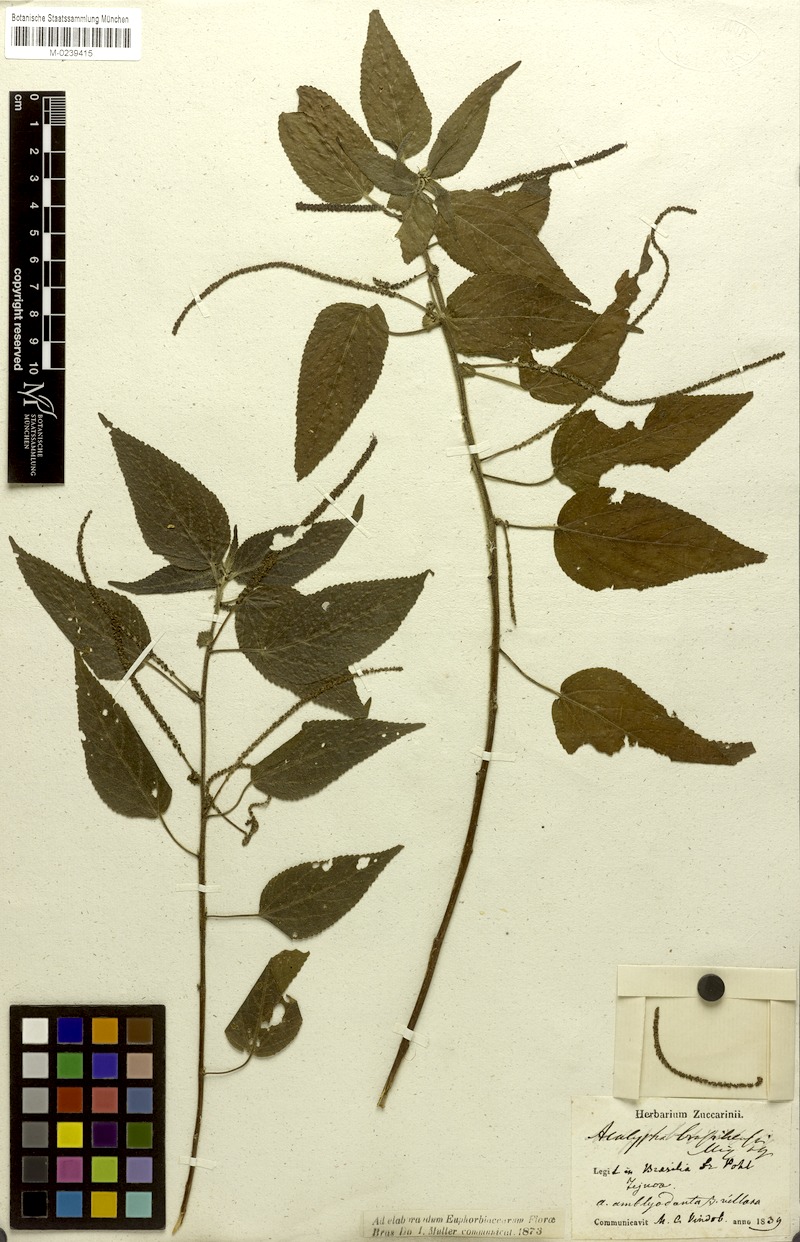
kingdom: Plantae
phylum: Tracheophyta
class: Magnoliopsida
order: Malpighiales
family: Euphorbiaceae
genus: Acalypha
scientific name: Acalypha amblyodonta
